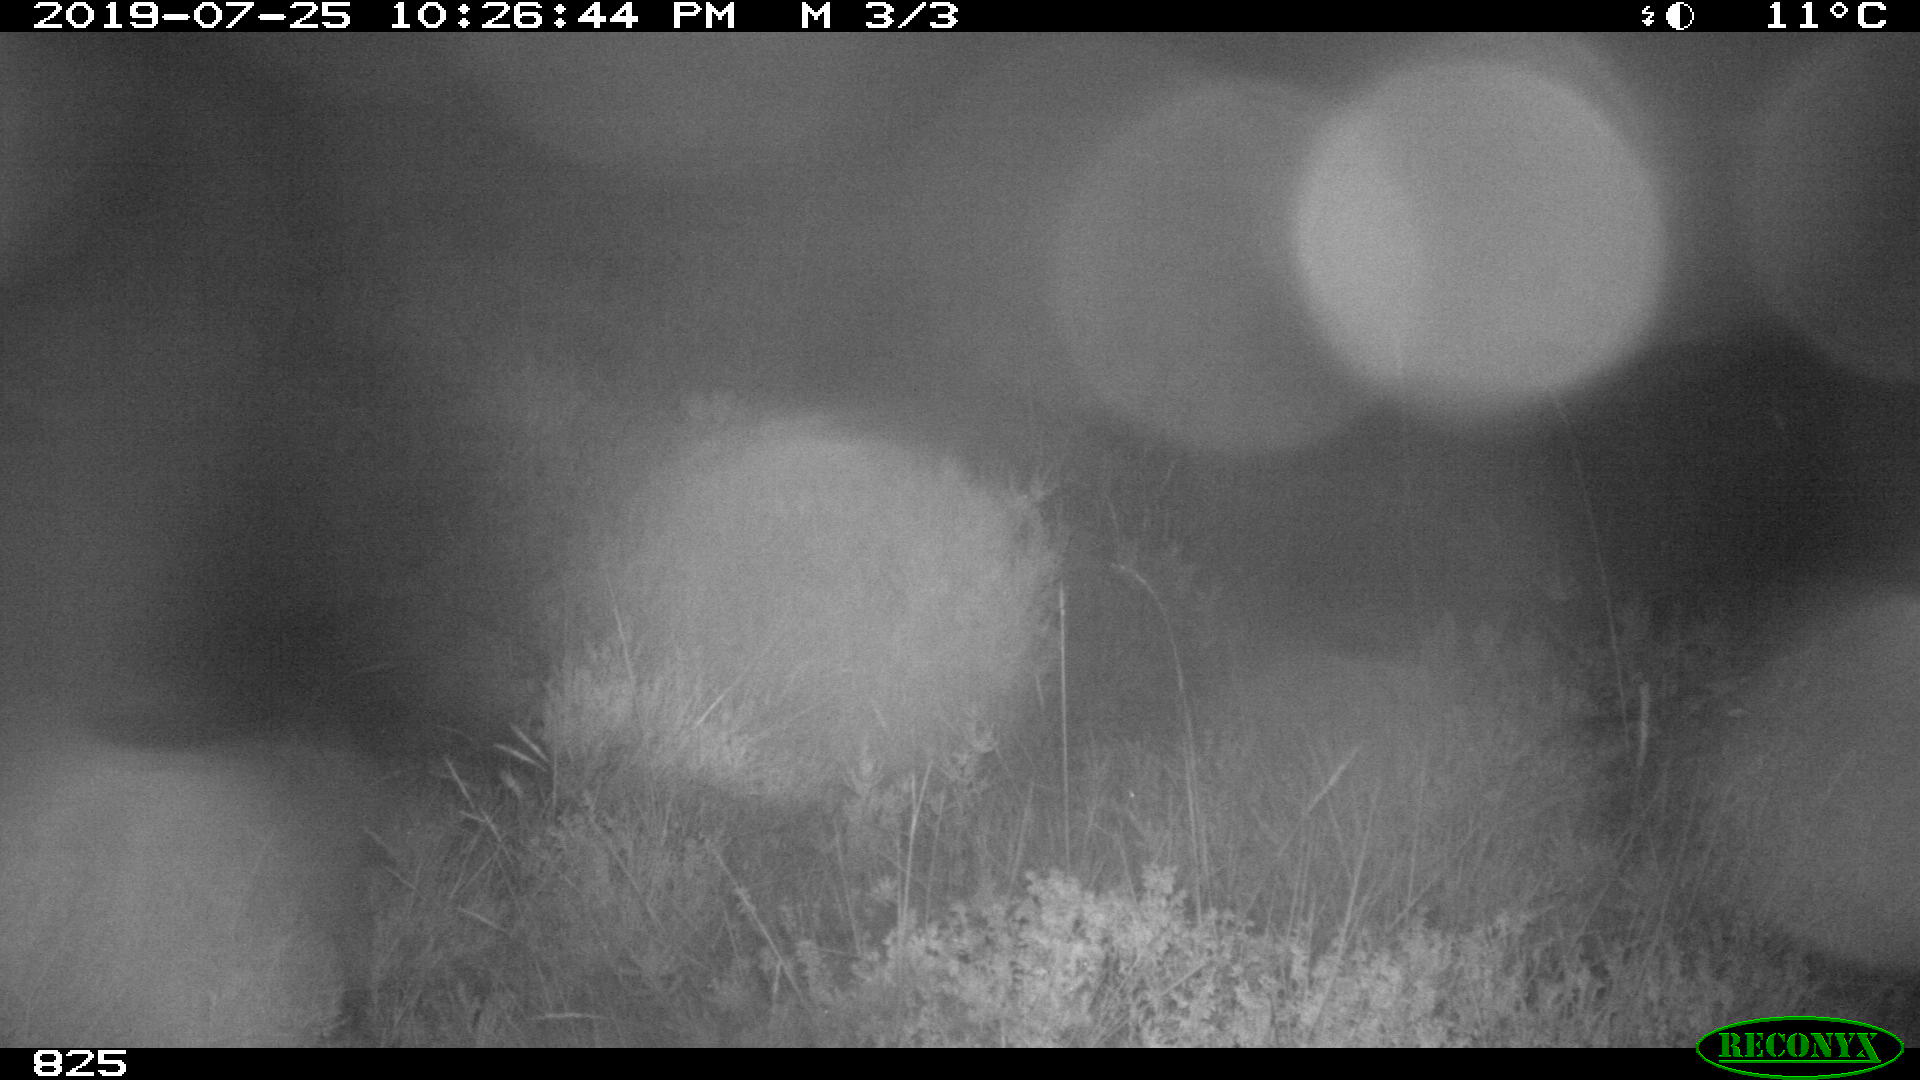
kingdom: Animalia
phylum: Chordata
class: Mammalia
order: Artiodactyla
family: Suidae
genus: Sus
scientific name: Sus scrofa
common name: Wild boar
